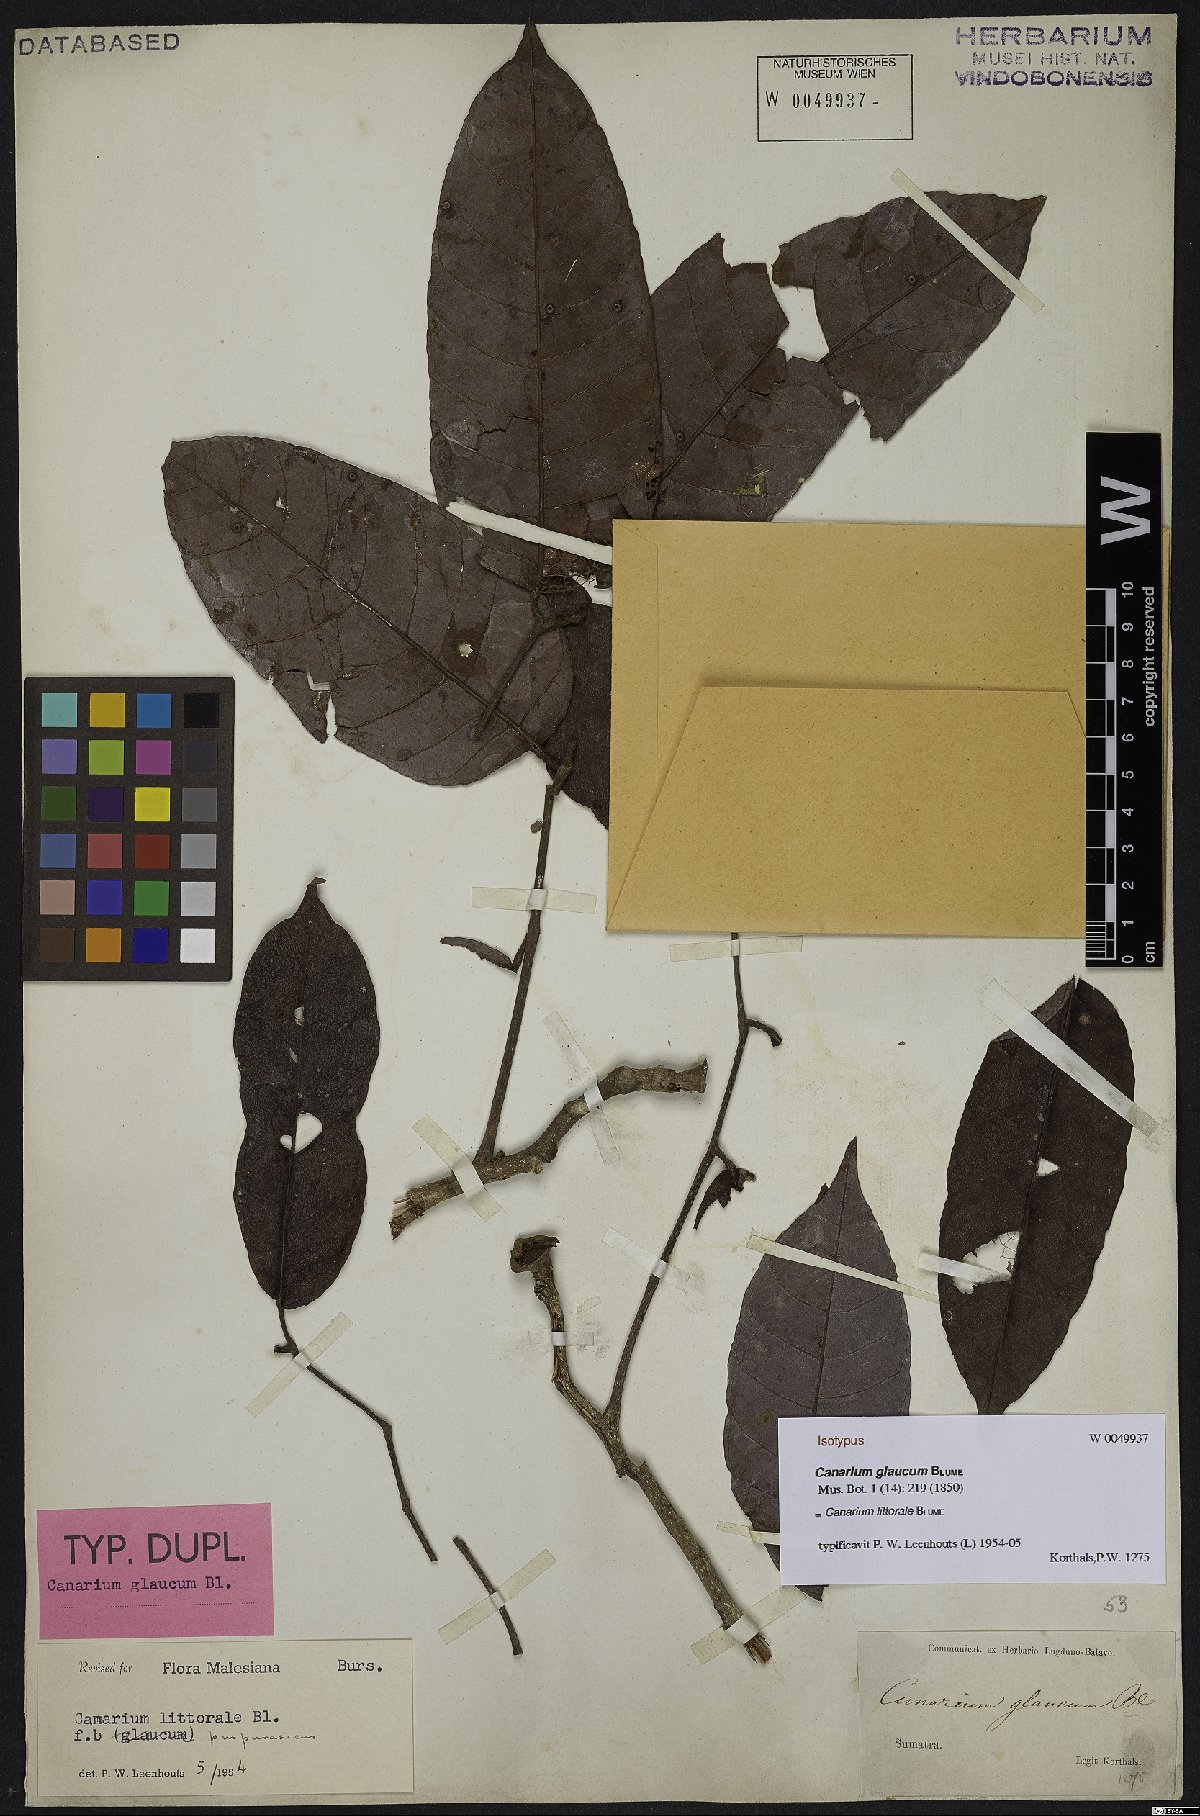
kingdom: Plantae
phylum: Tracheophyta
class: Magnoliopsida
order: Sapindales
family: Burseraceae
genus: Canarium
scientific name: Canarium littorale
